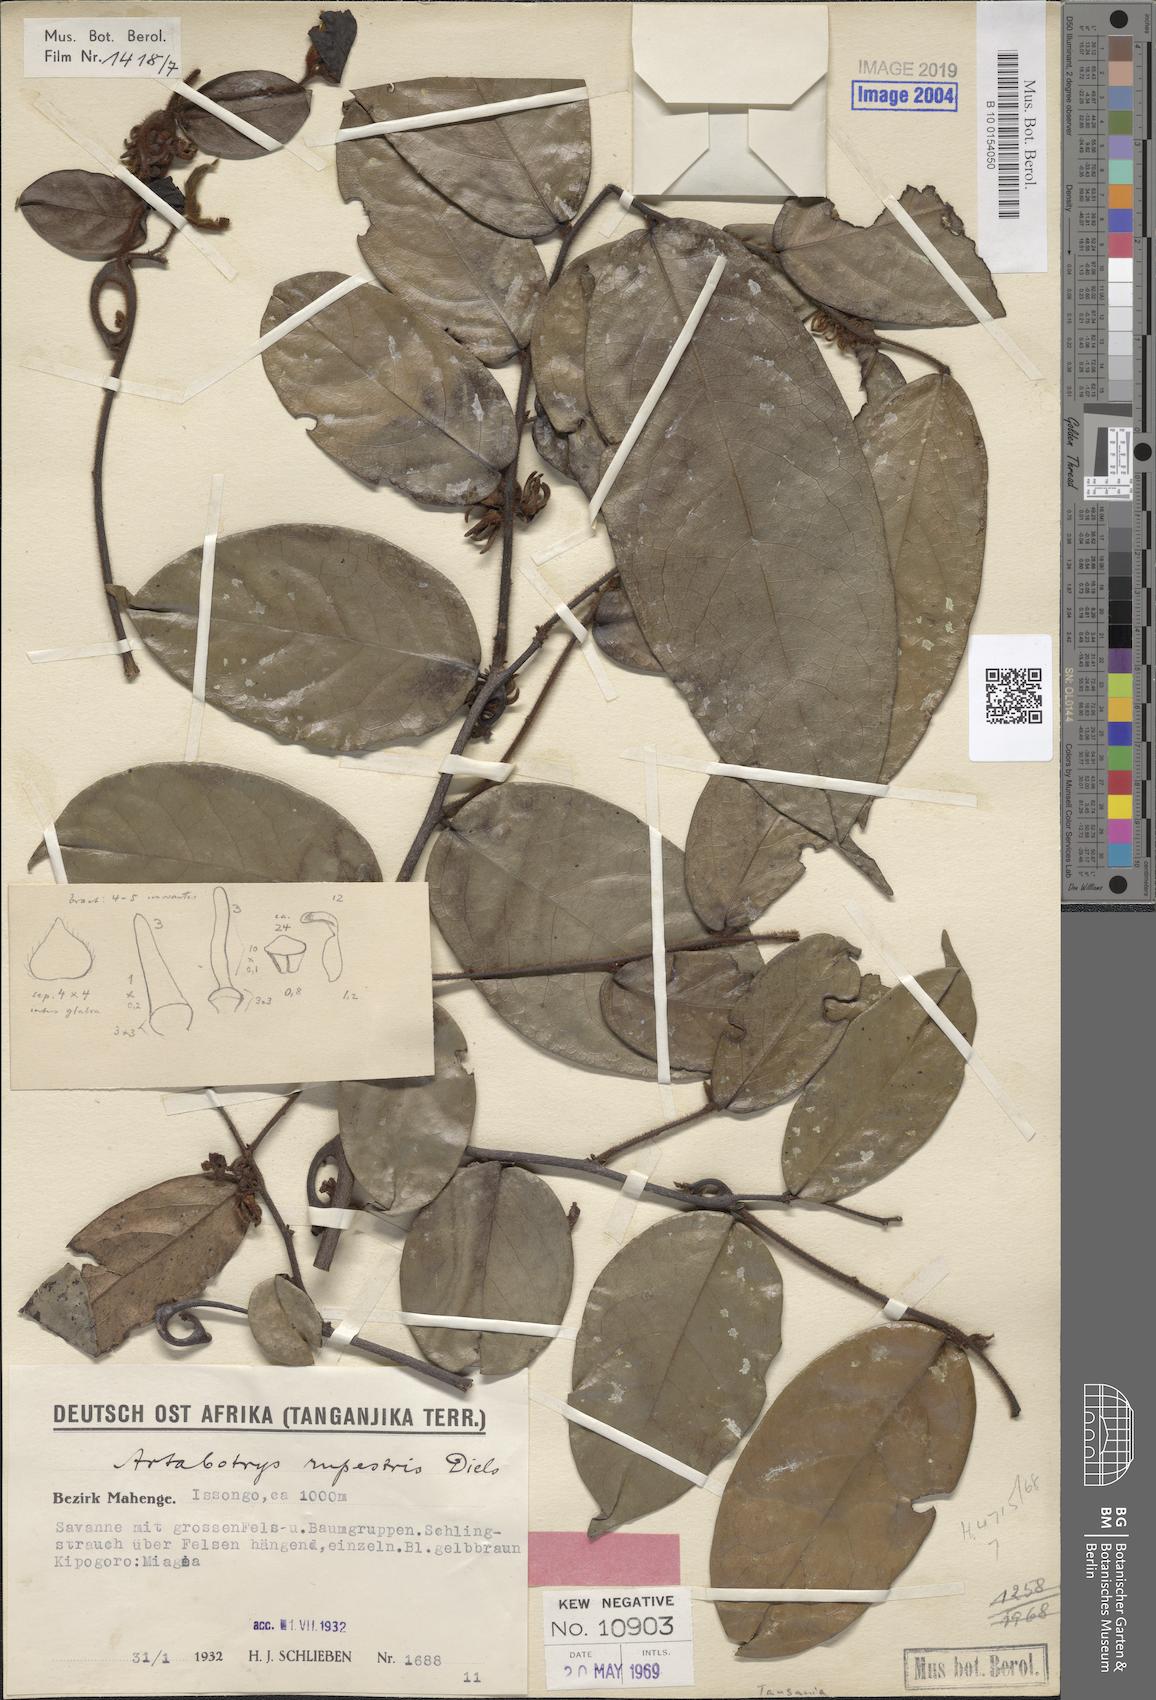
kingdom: Plantae
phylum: Tracheophyta
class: Magnoliopsida
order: Magnoliales
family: Annonaceae
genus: Artabotrys
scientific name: Artabotrys rupestris
